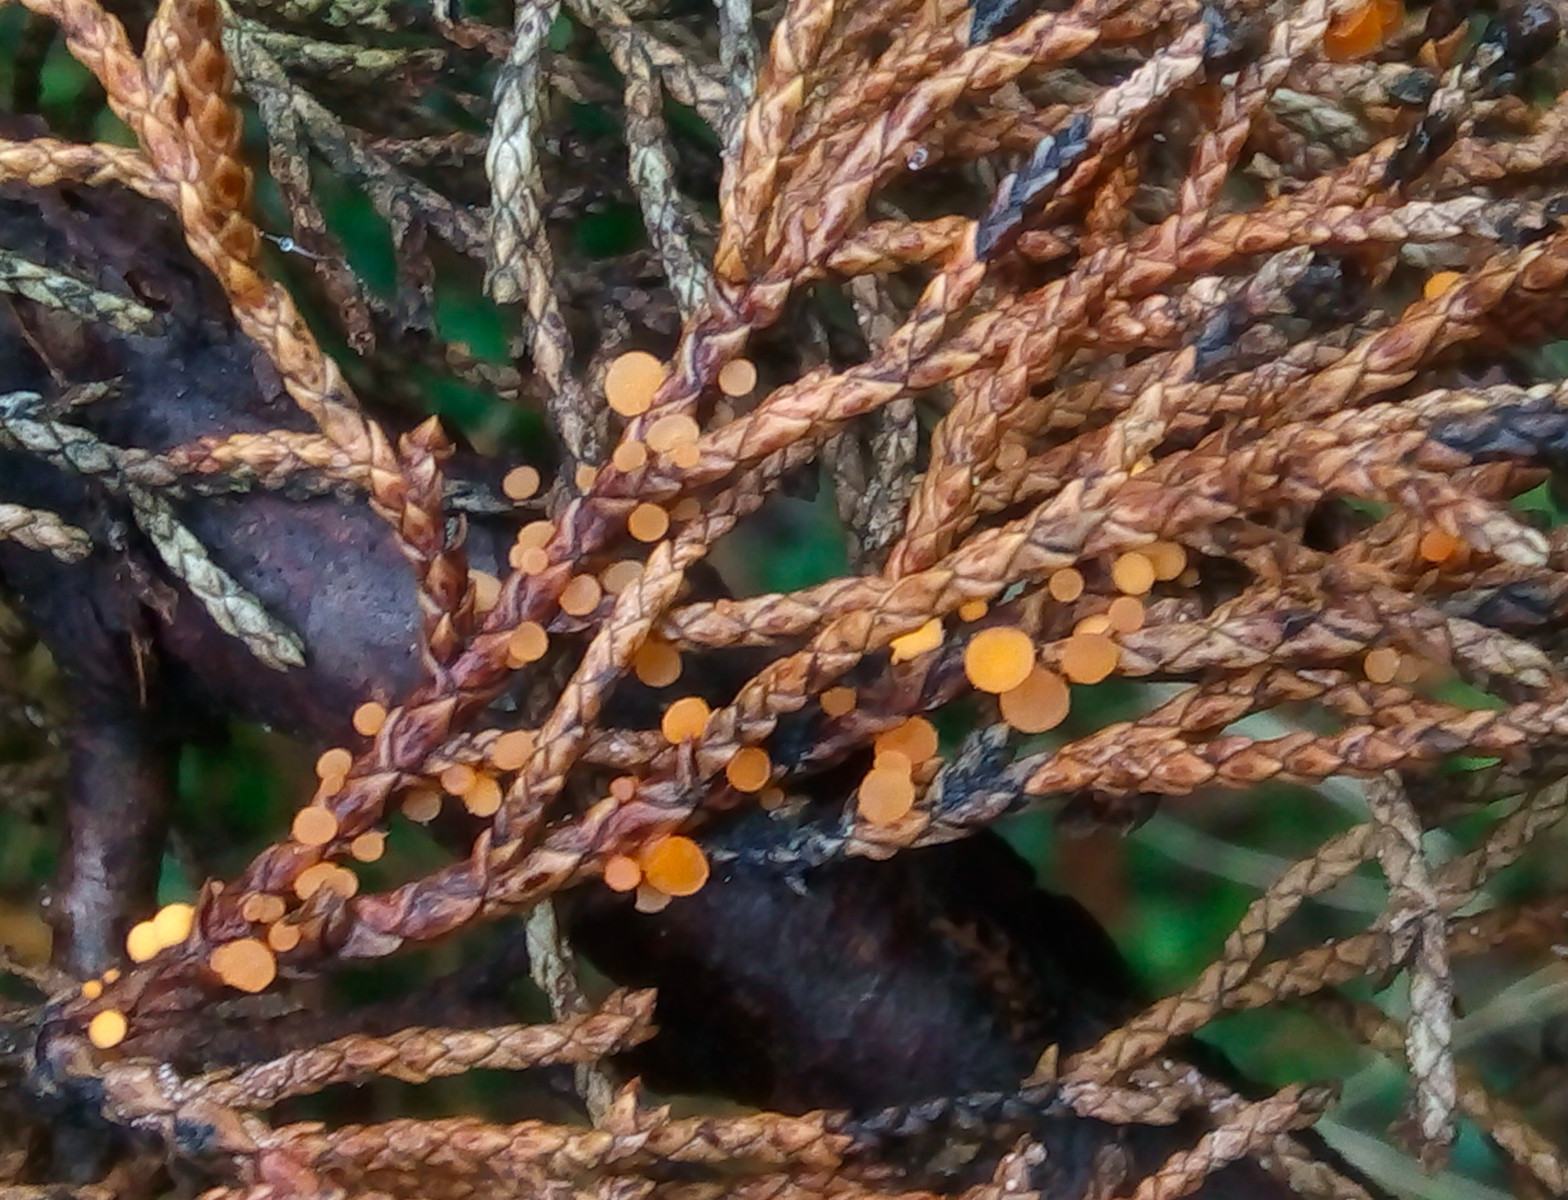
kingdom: Fungi
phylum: Ascomycota
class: Pezizomycetes
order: Pezizales
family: Sarcoscyphaceae
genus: Pithya
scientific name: Pithya cupressina
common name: lille dukatbæger
